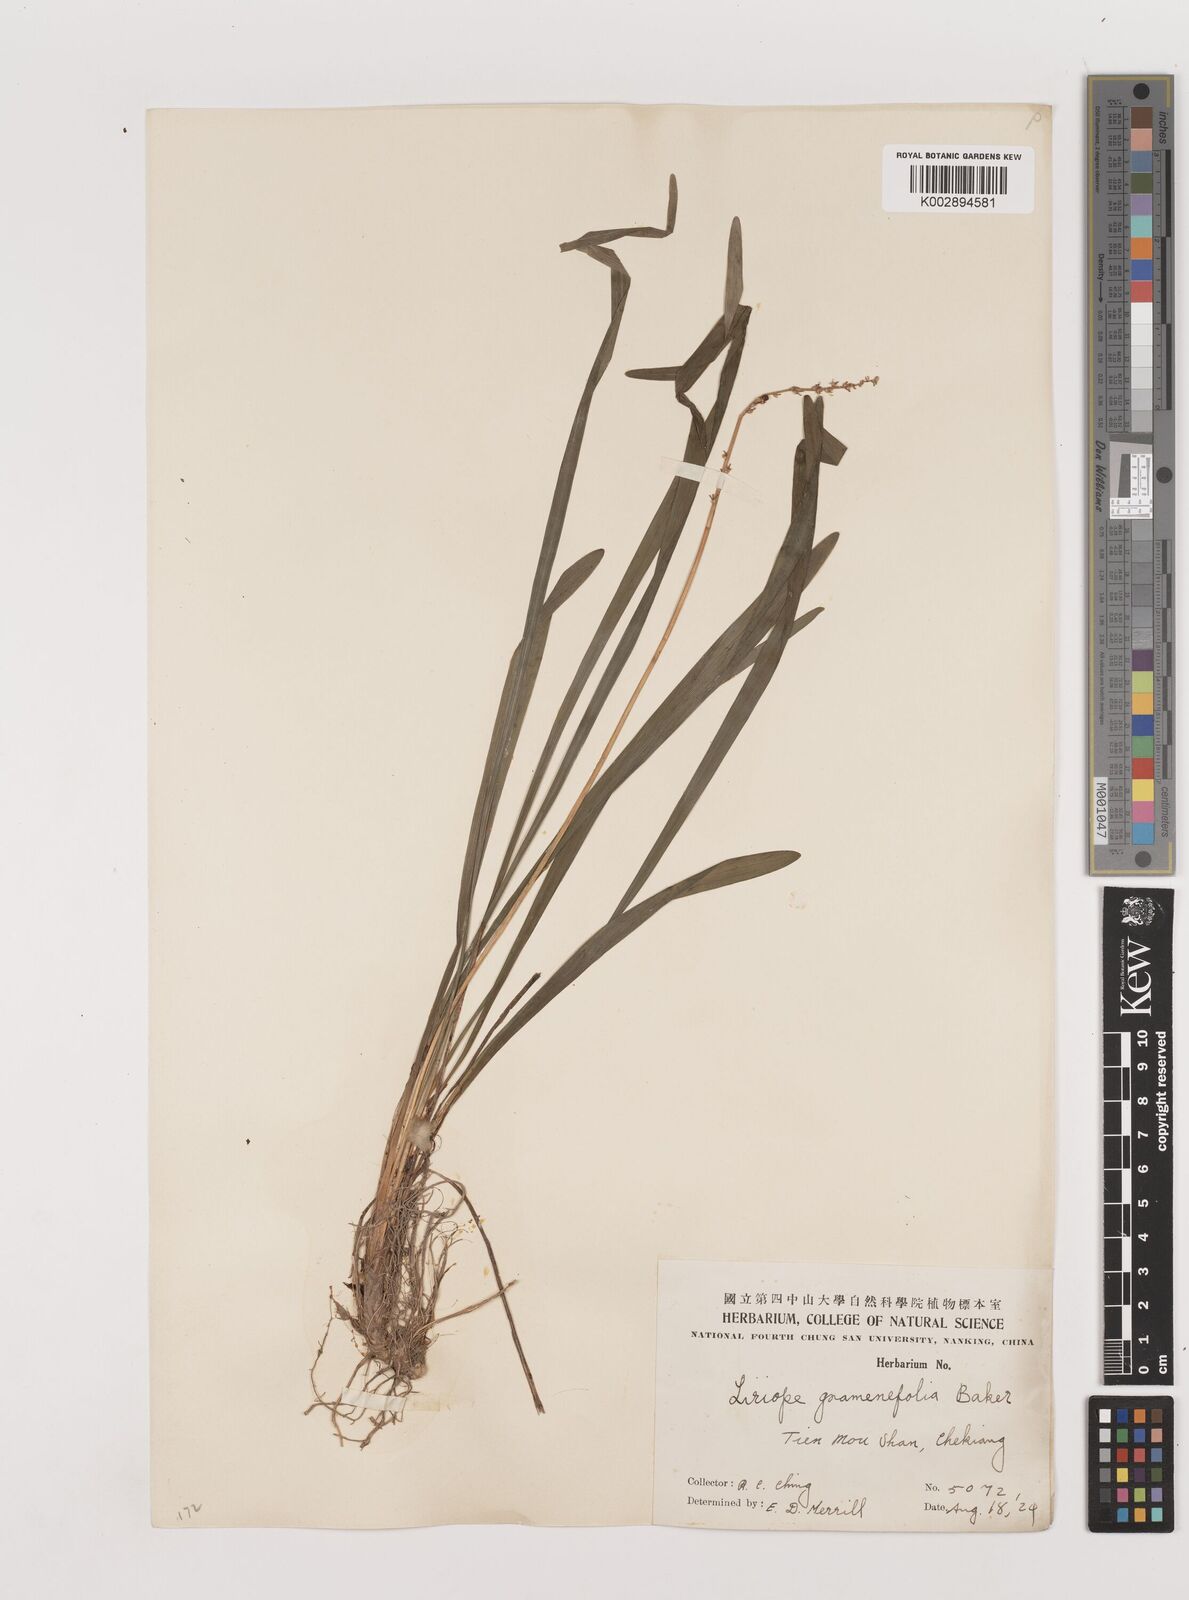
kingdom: Plantae
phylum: Tracheophyta
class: Liliopsida
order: Asparagales
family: Asparagaceae
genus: Liriope
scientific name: Liriope muscari
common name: Big blue lilyturf
